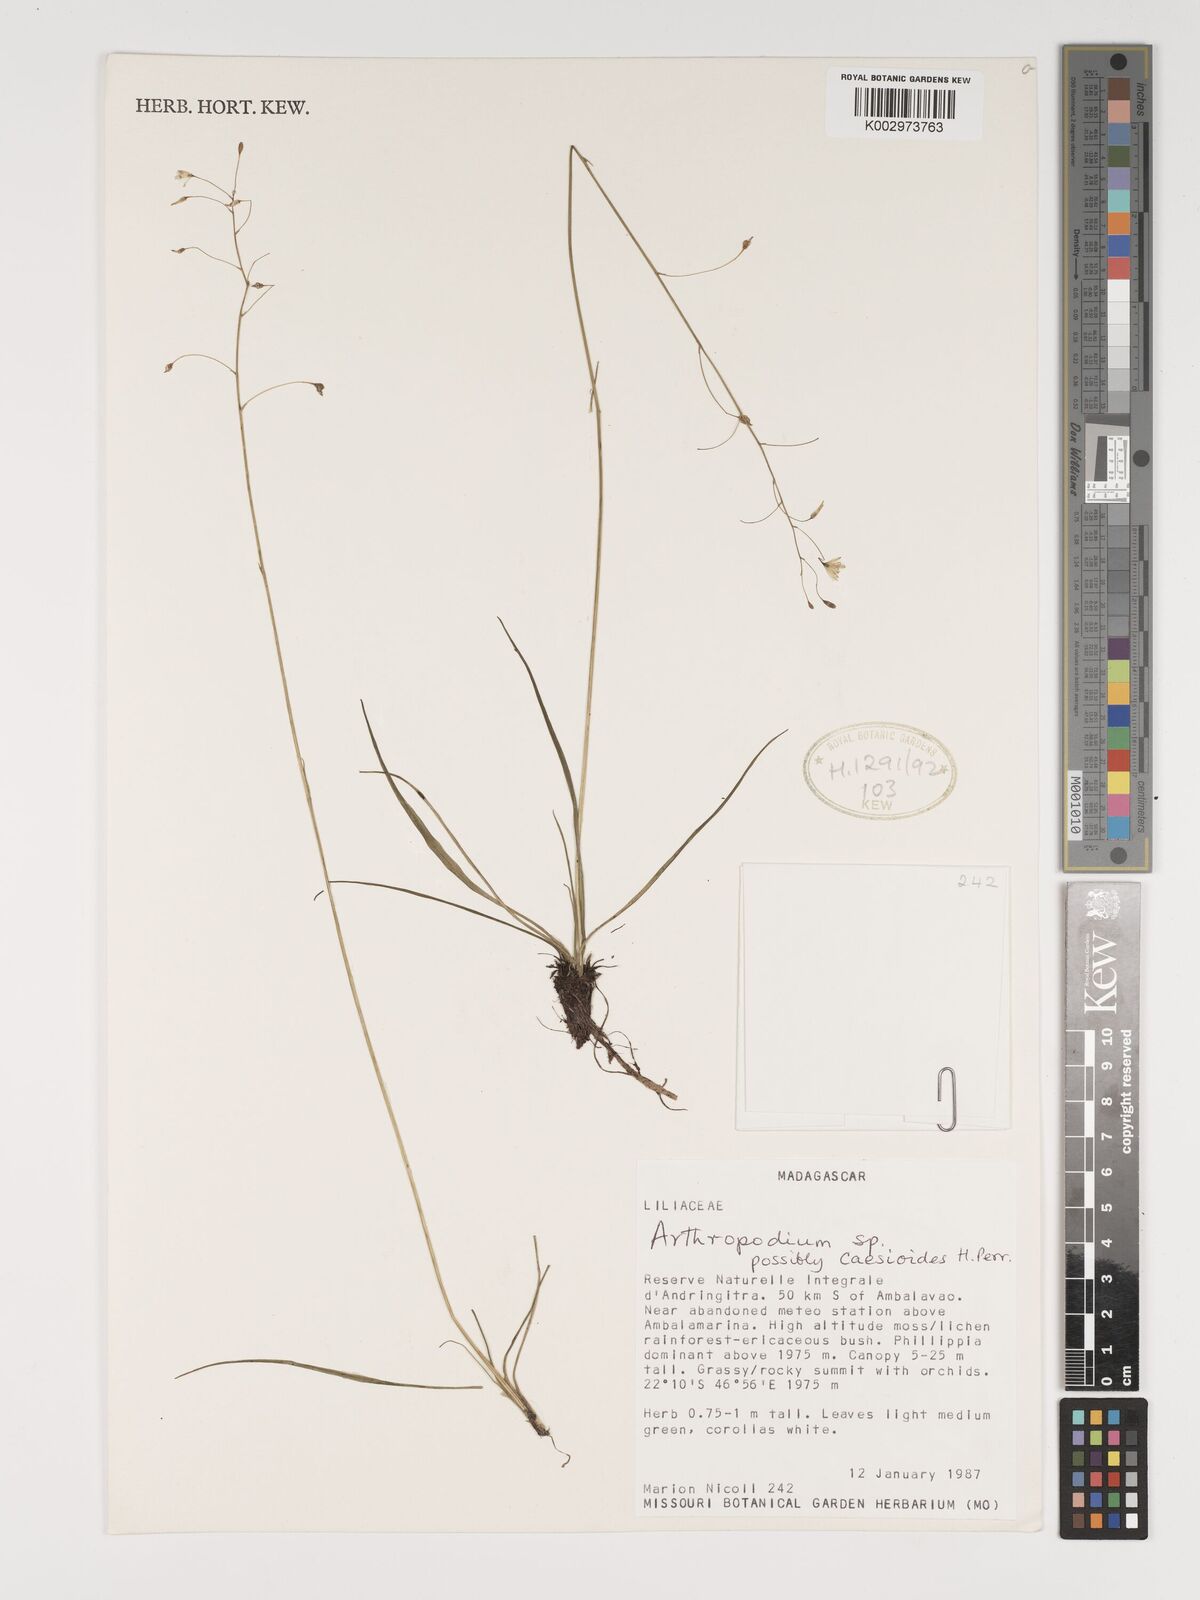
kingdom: Plantae
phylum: Tracheophyta
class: Liliopsida
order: Asparagales
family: Asparagaceae
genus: Arthropodium
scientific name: Arthropodium caesioides
